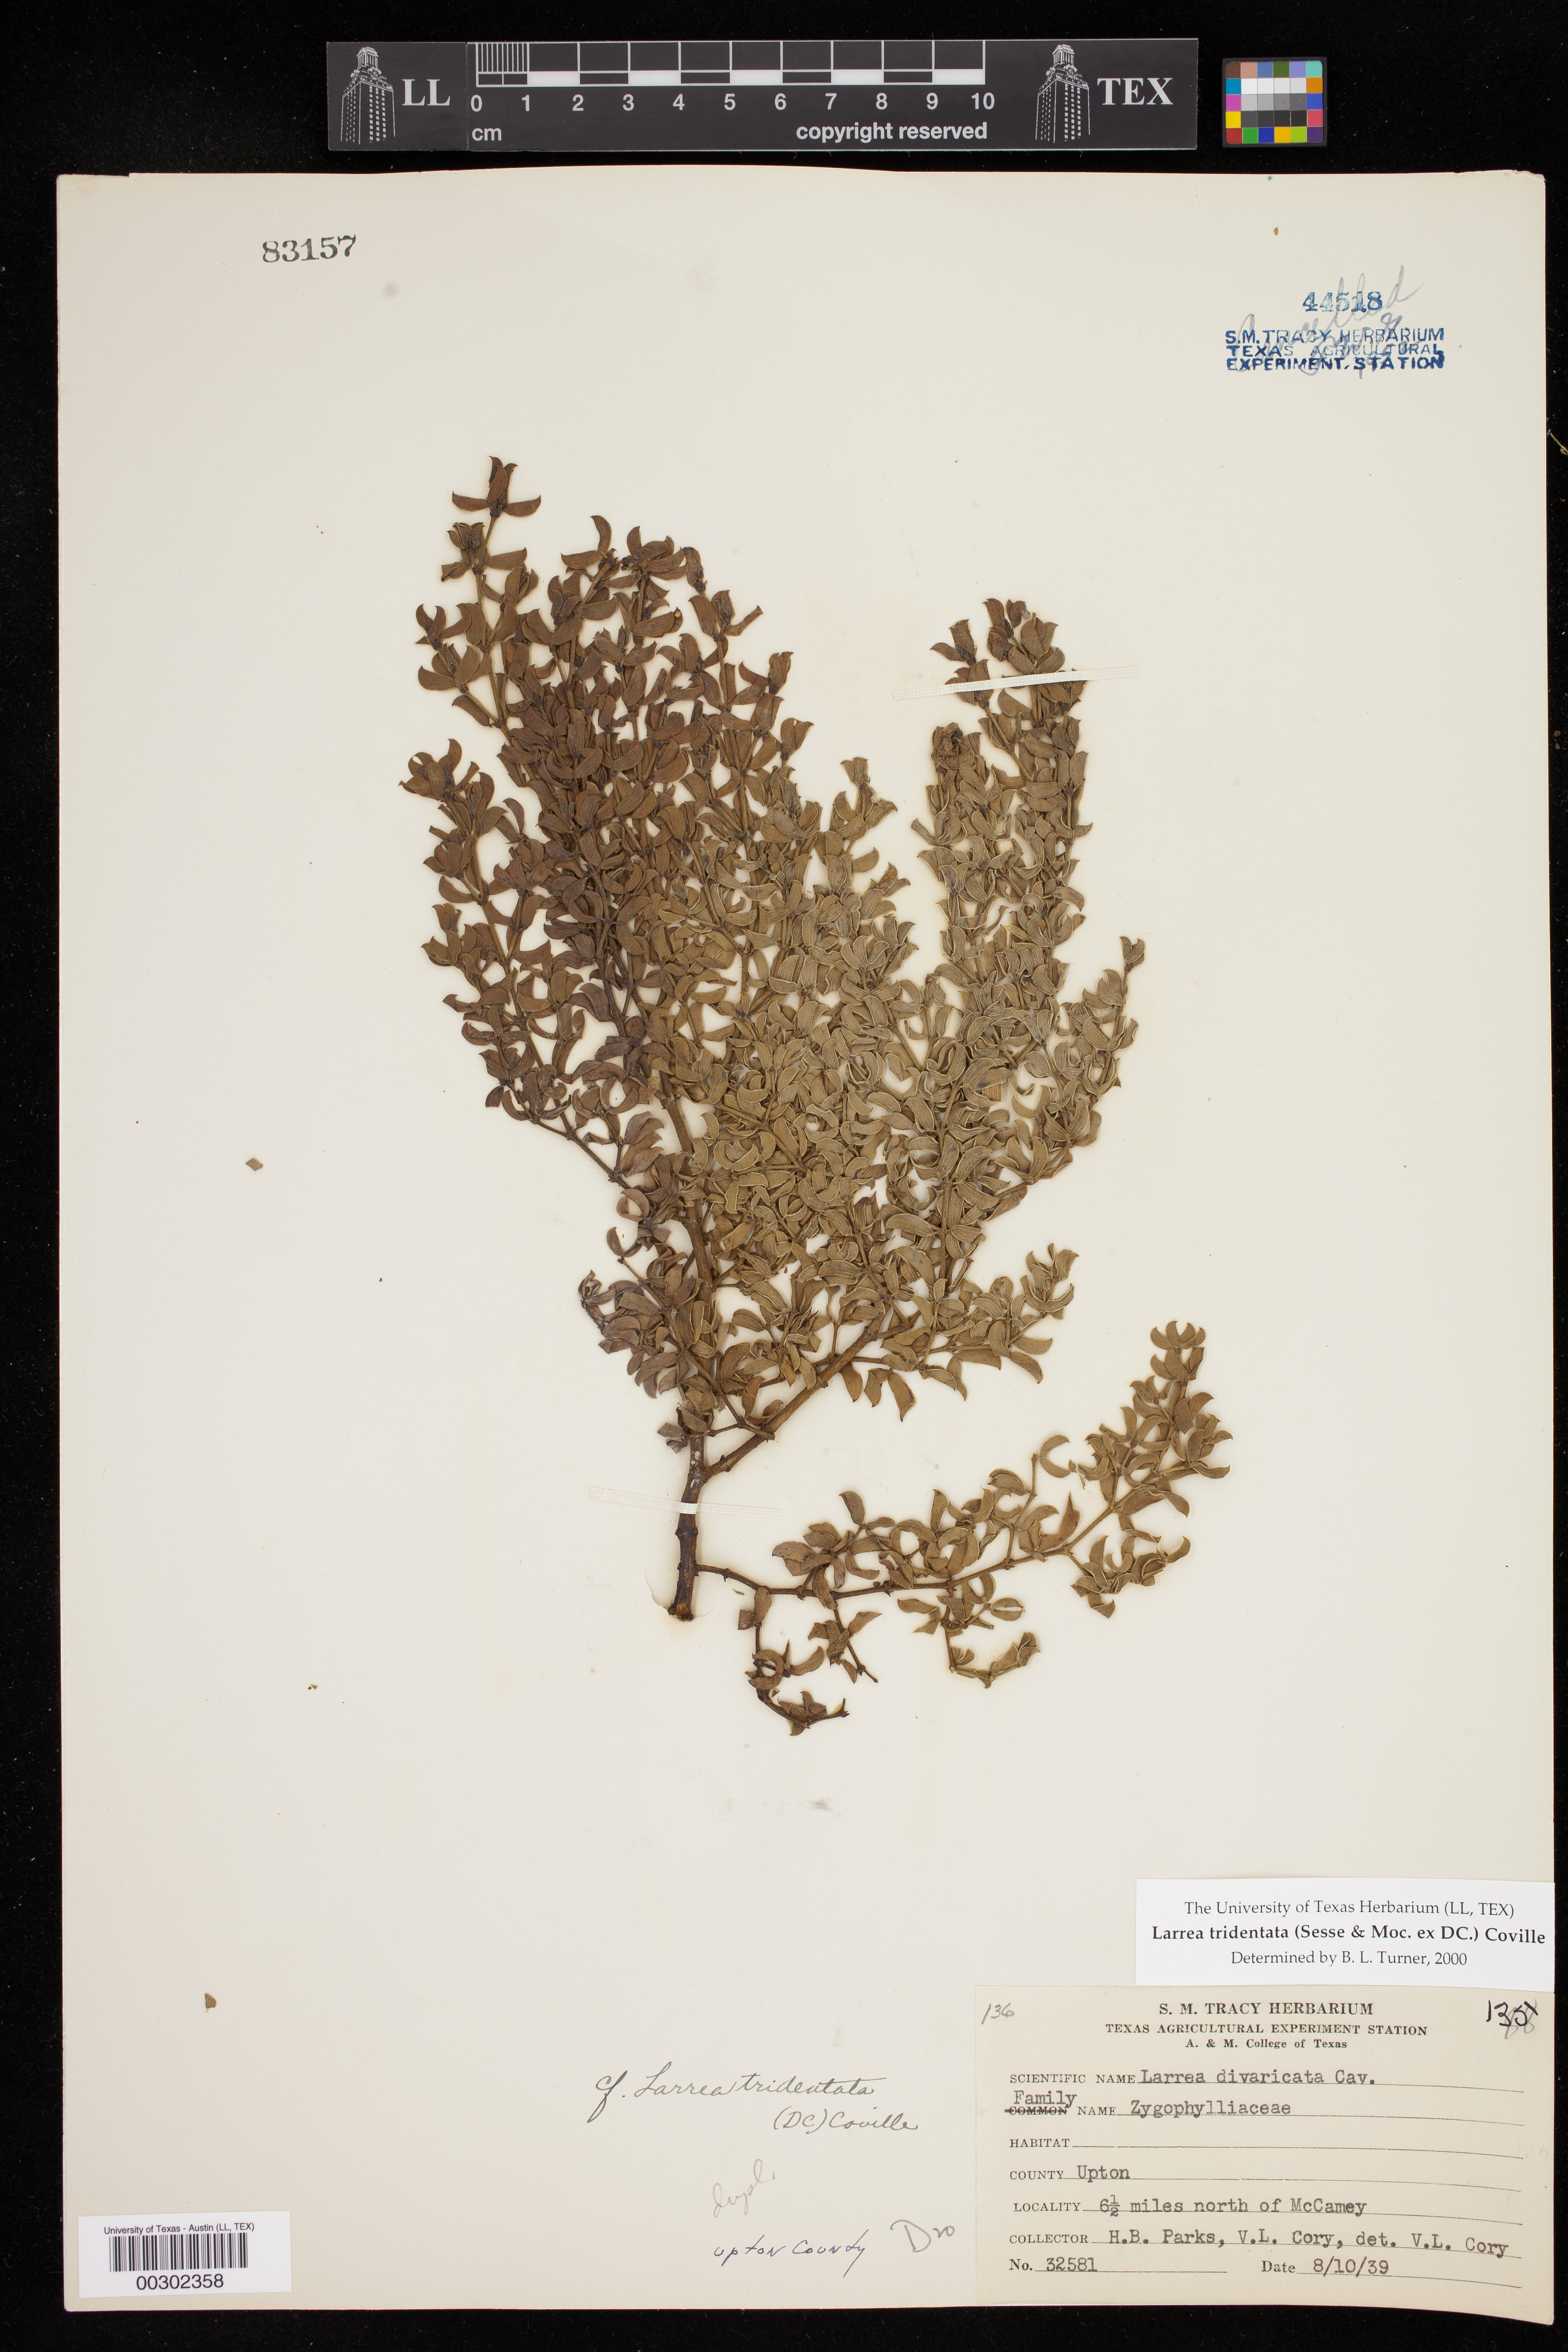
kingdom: Plantae
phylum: Tracheophyta
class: Magnoliopsida
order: Zygophyllales
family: Zygophyllaceae
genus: Larrea
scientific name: Larrea tridentata
